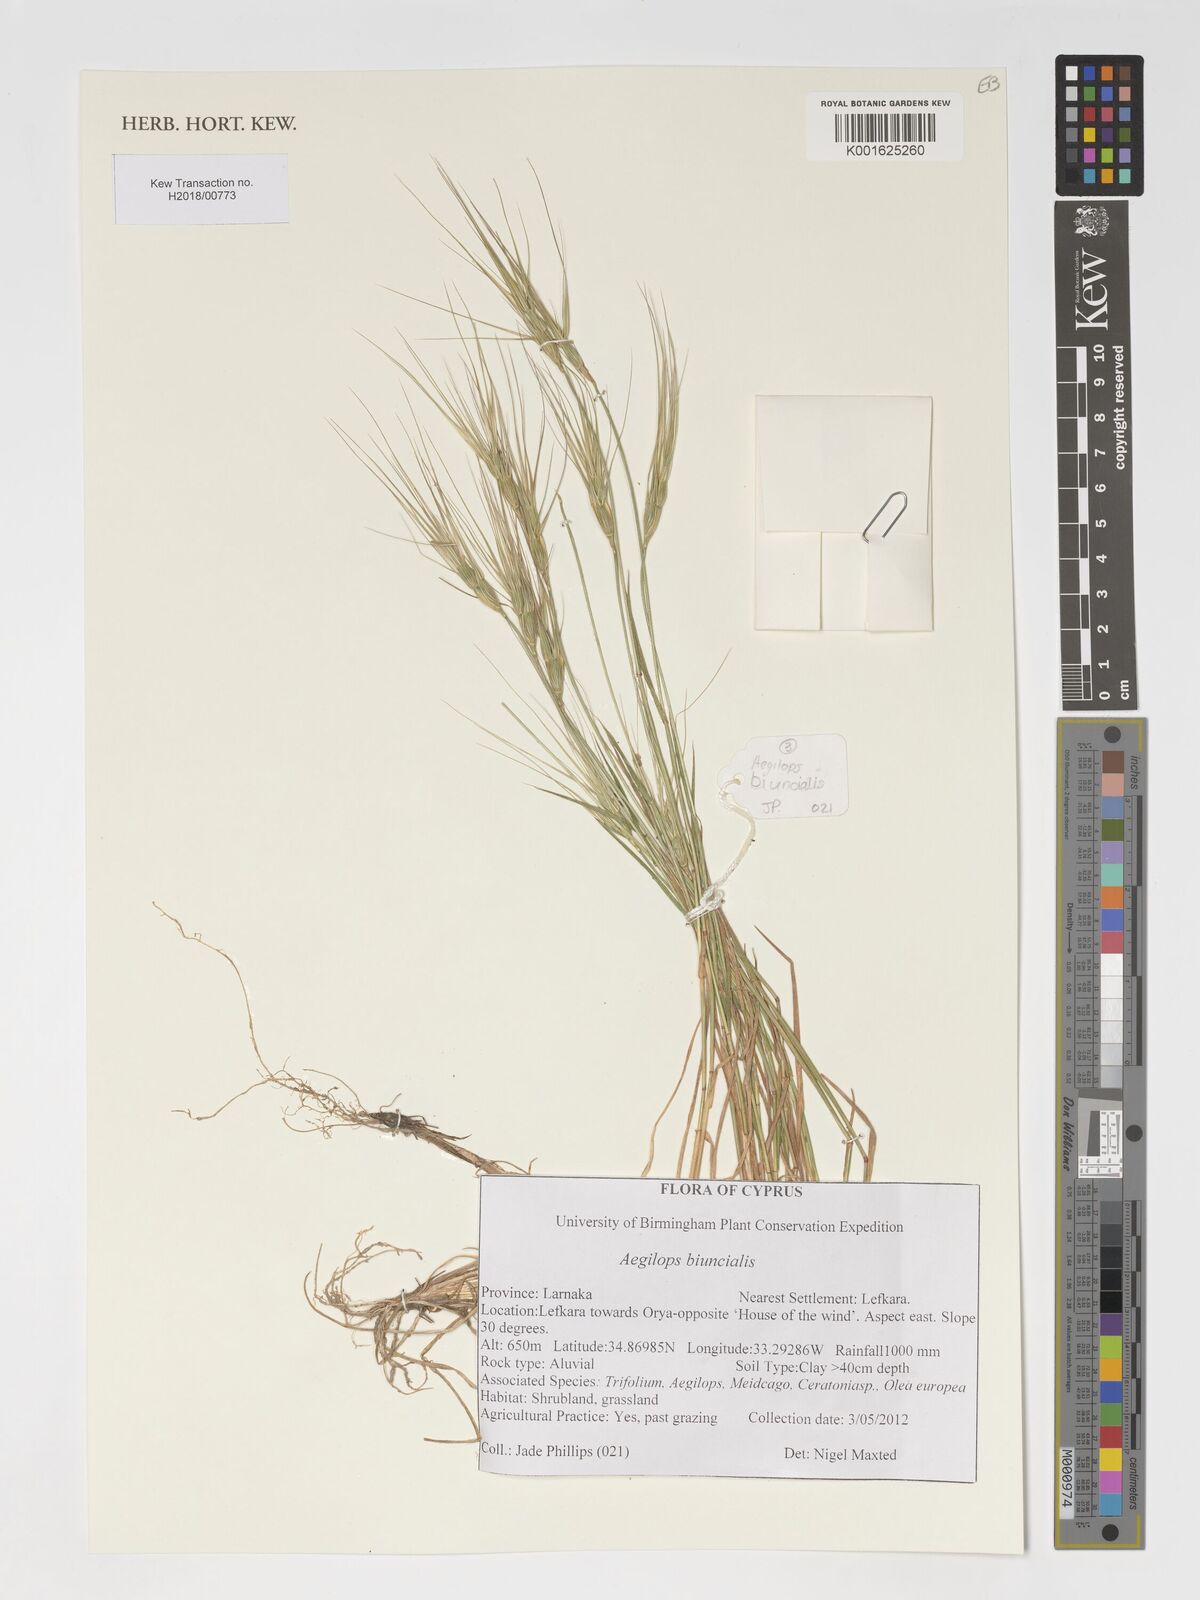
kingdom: Plantae
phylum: Tracheophyta
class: Liliopsida
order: Poales
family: Poaceae
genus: Aegilops
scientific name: Aegilops biuncialis
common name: Mediterranean aegilops
